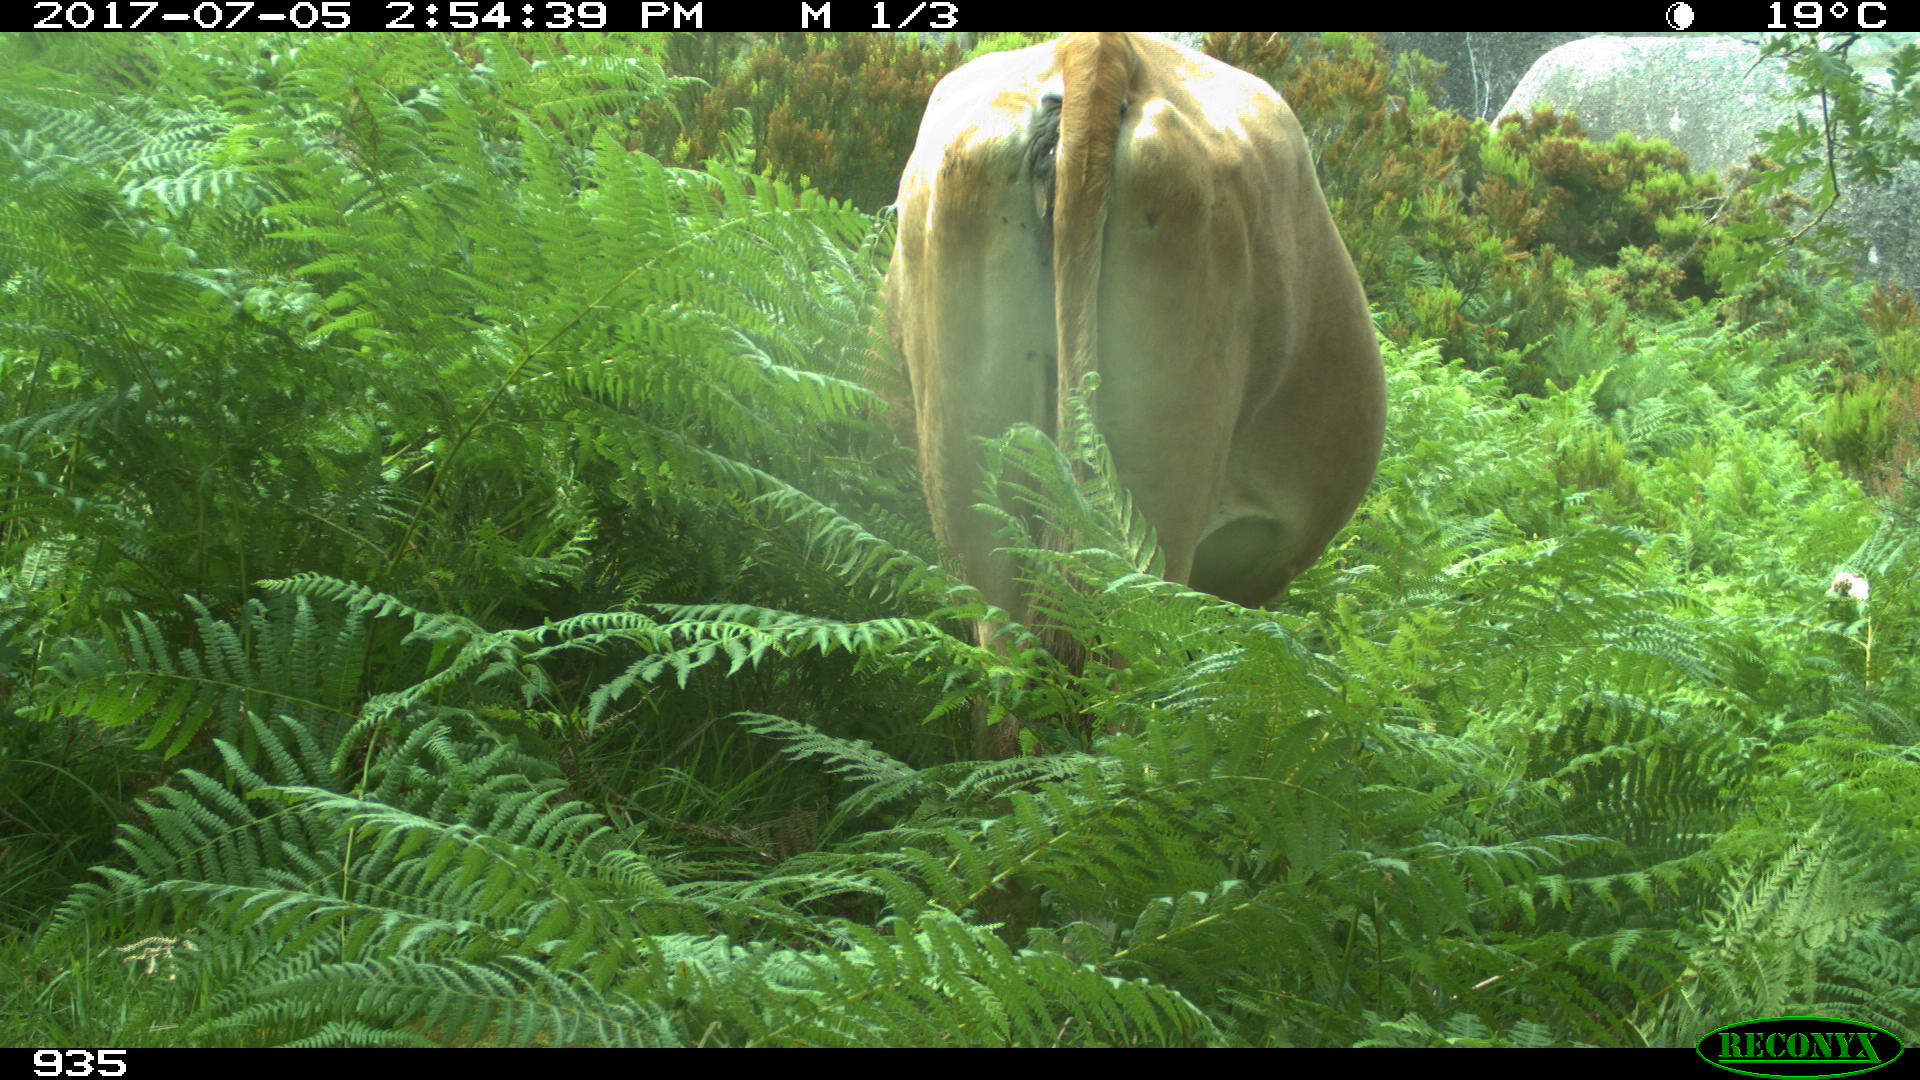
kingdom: Animalia
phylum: Chordata
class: Mammalia
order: Artiodactyla
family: Bovidae
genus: Bos
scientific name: Bos taurus
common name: Domesticated cattle
